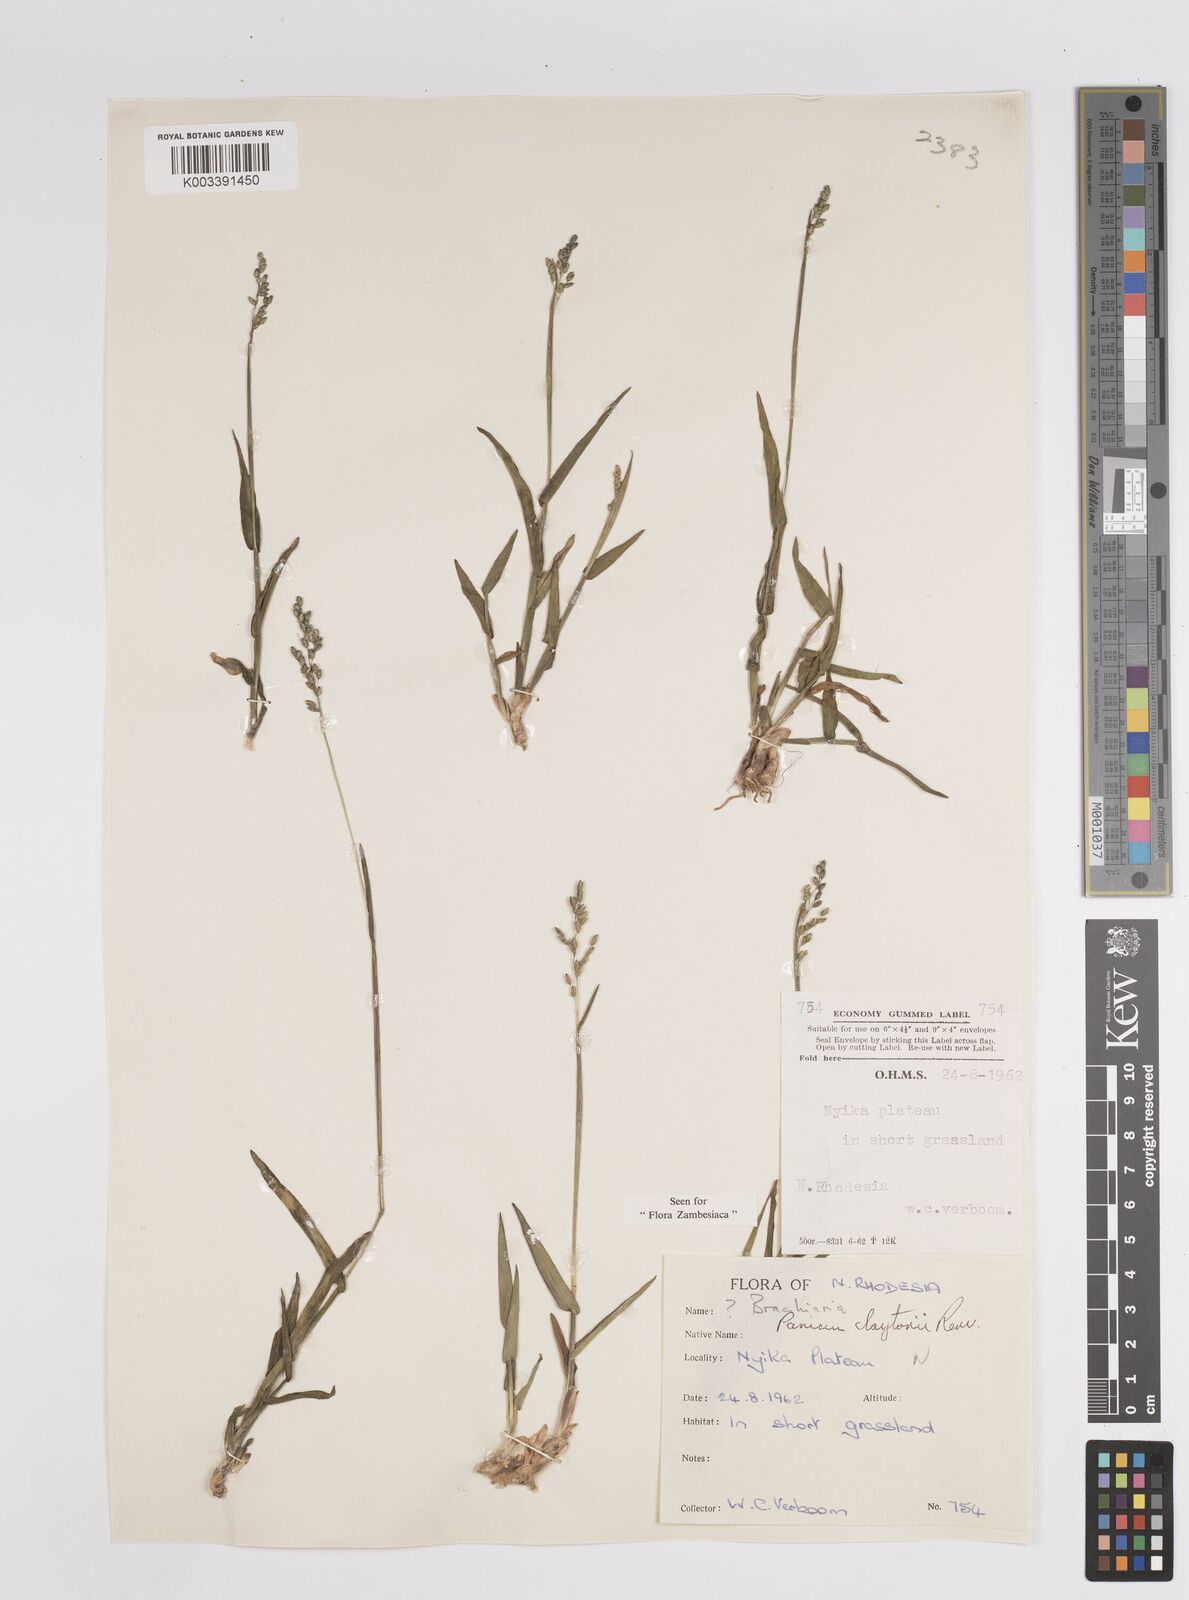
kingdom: Plantae
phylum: Tracheophyta
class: Liliopsida
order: Poales
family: Poaceae
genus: Adenochloa
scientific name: Adenochloa claytonii
